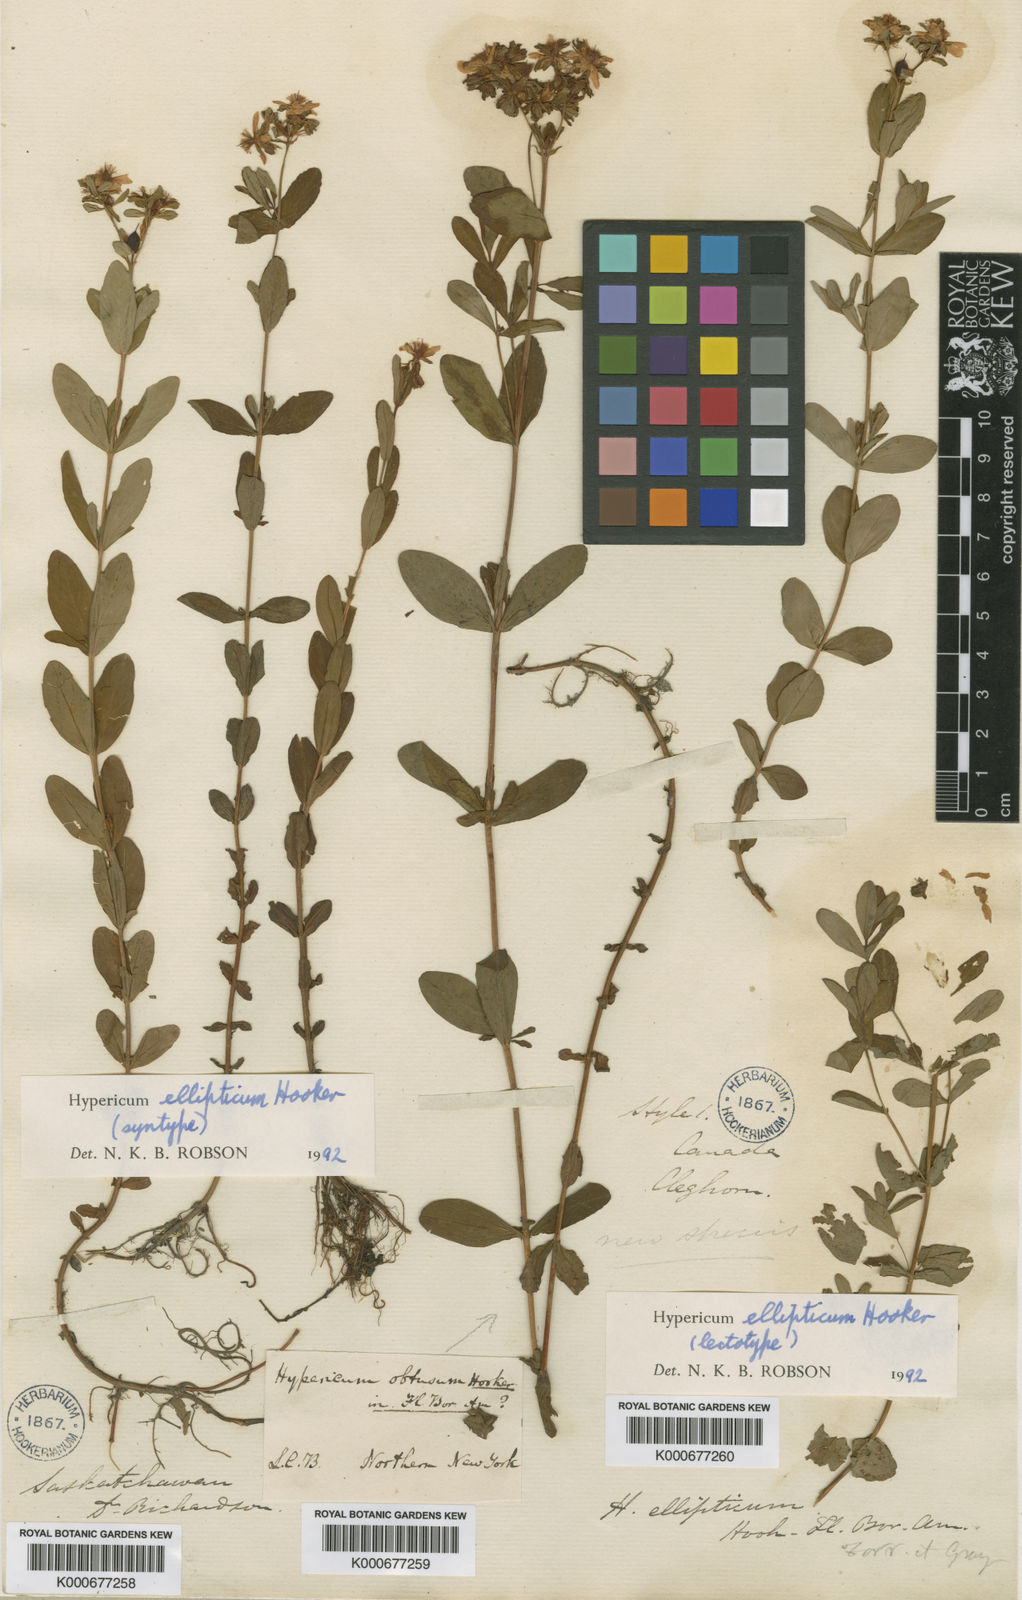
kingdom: Plantae
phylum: Tracheophyta
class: Magnoliopsida
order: Malpighiales
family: Hypericaceae
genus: Hypericum
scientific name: Hypericum ellipticum
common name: Elliptic st. john's-wort
